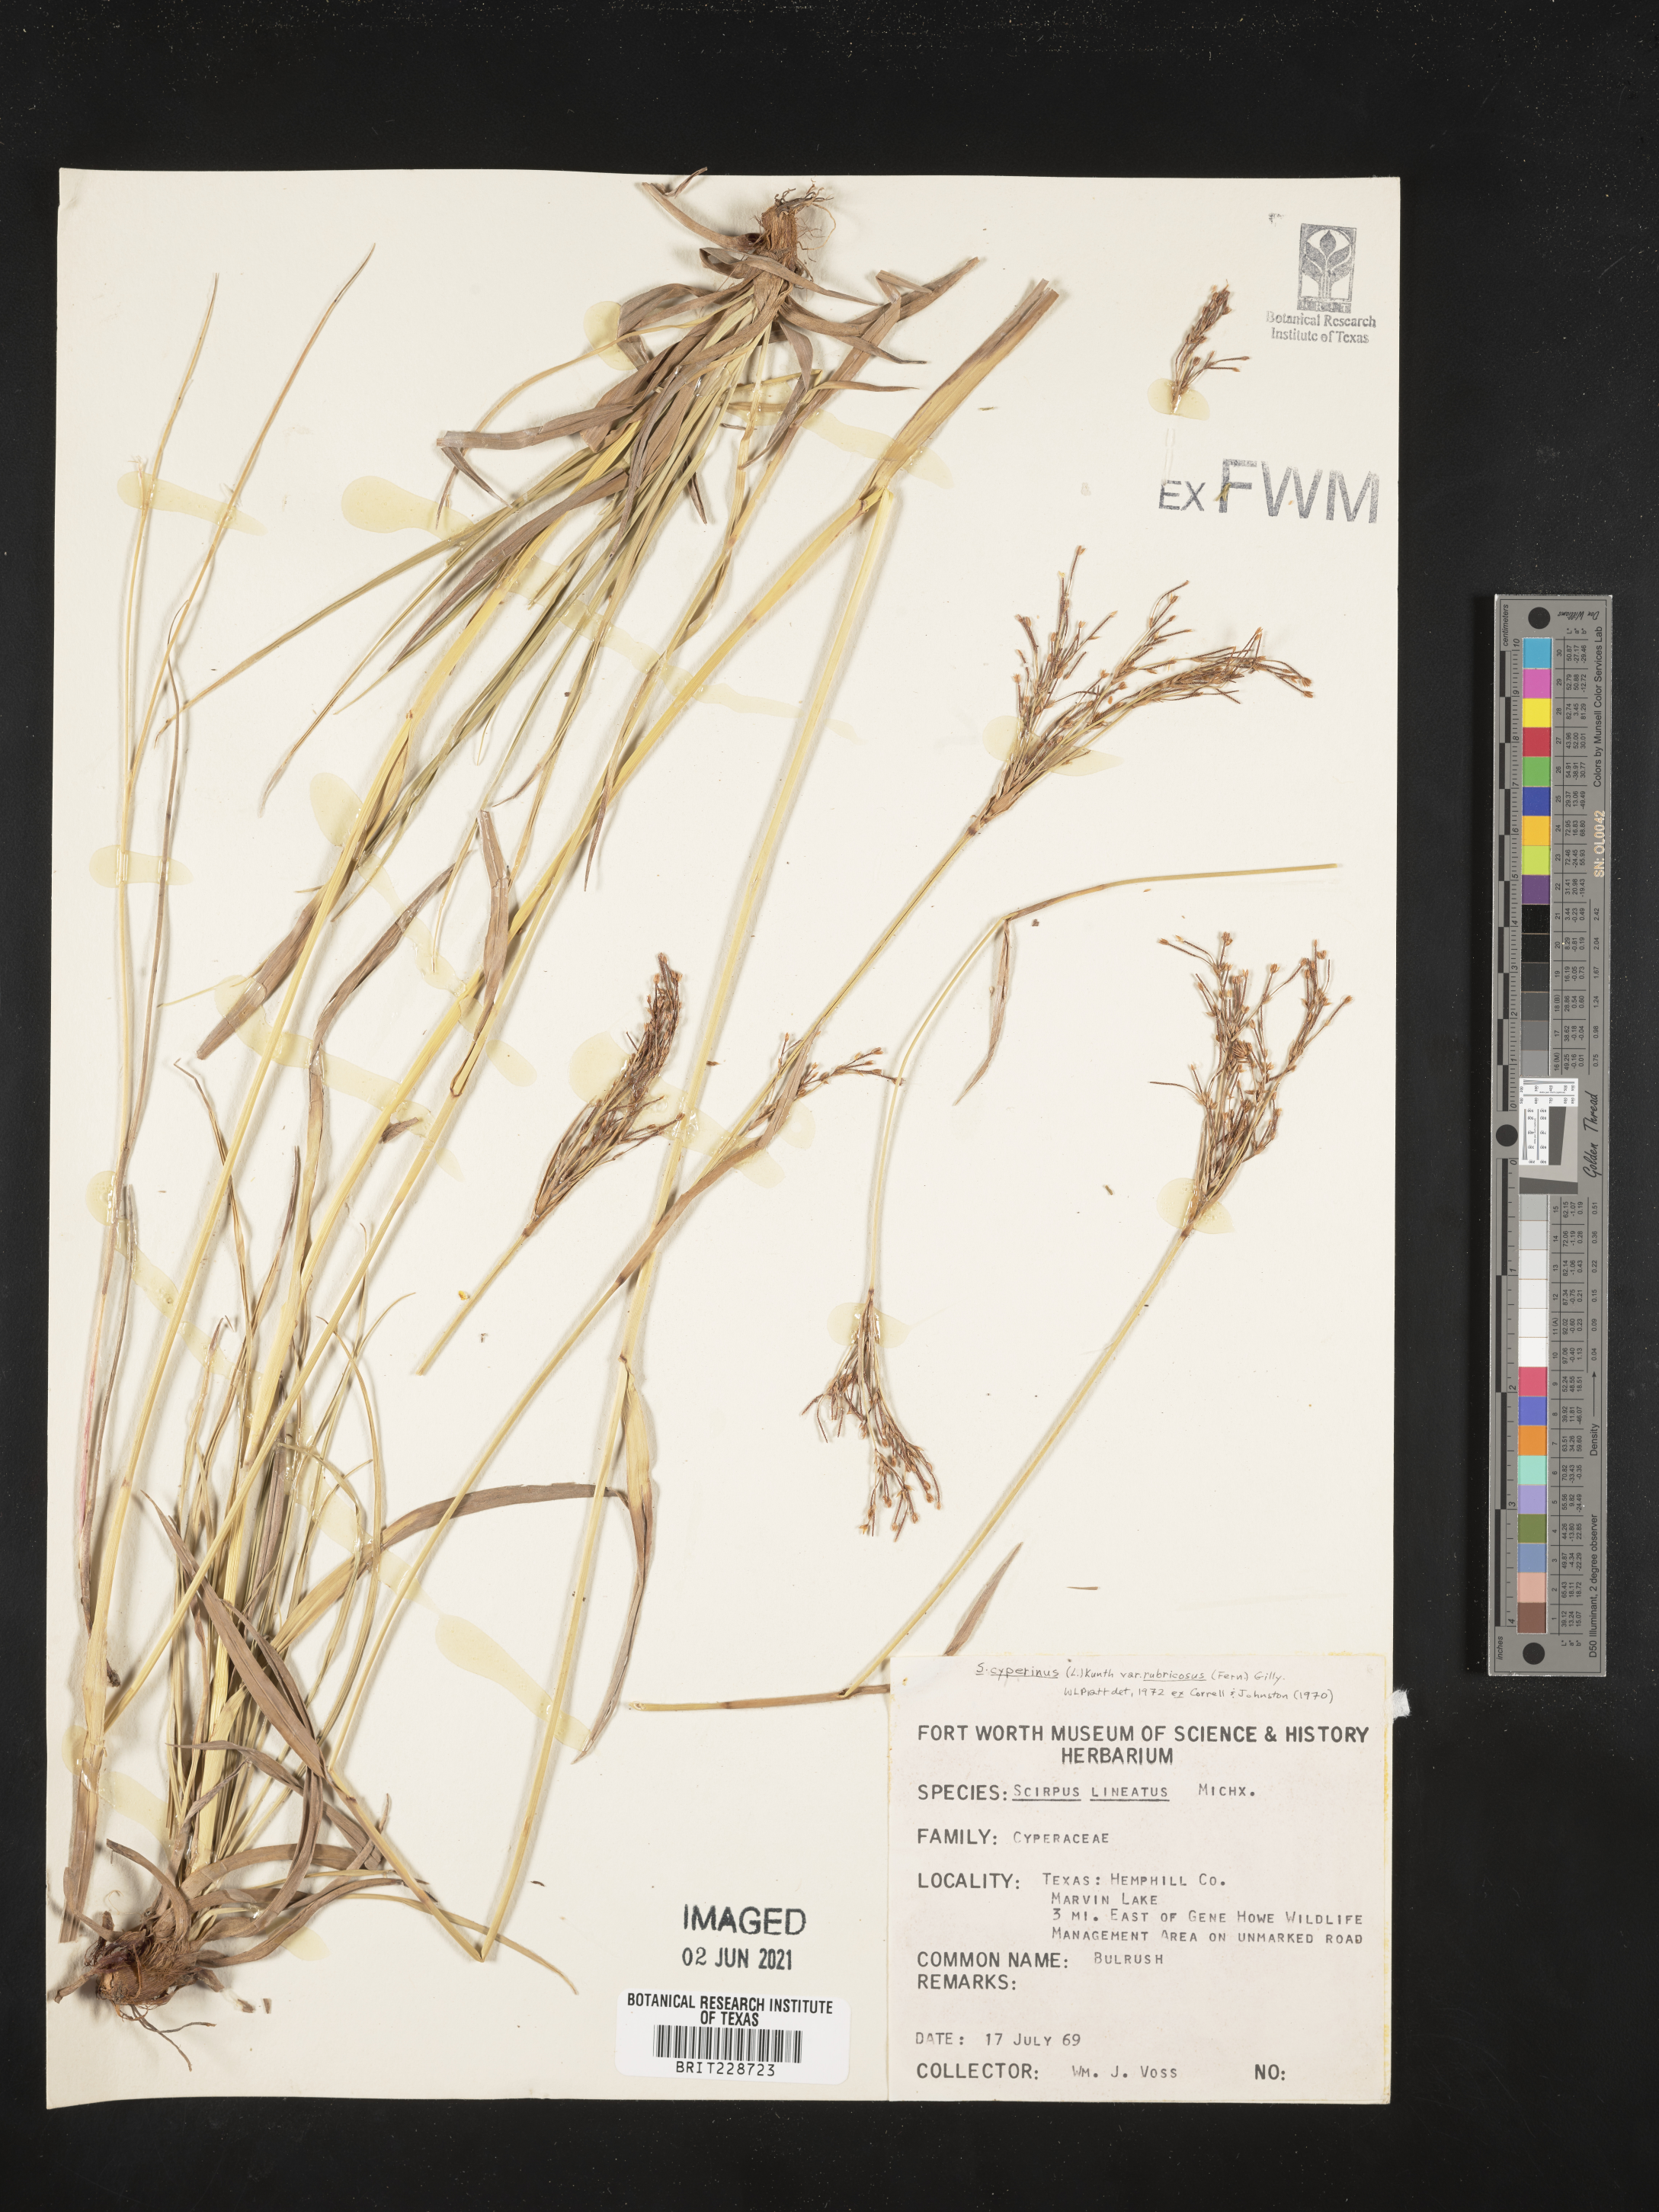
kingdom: Plantae
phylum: Tracheophyta
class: Liliopsida
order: Poales
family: Cyperaceae
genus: Scirpus
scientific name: Scirpus cyperinus
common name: Black-sheathed bulrush
